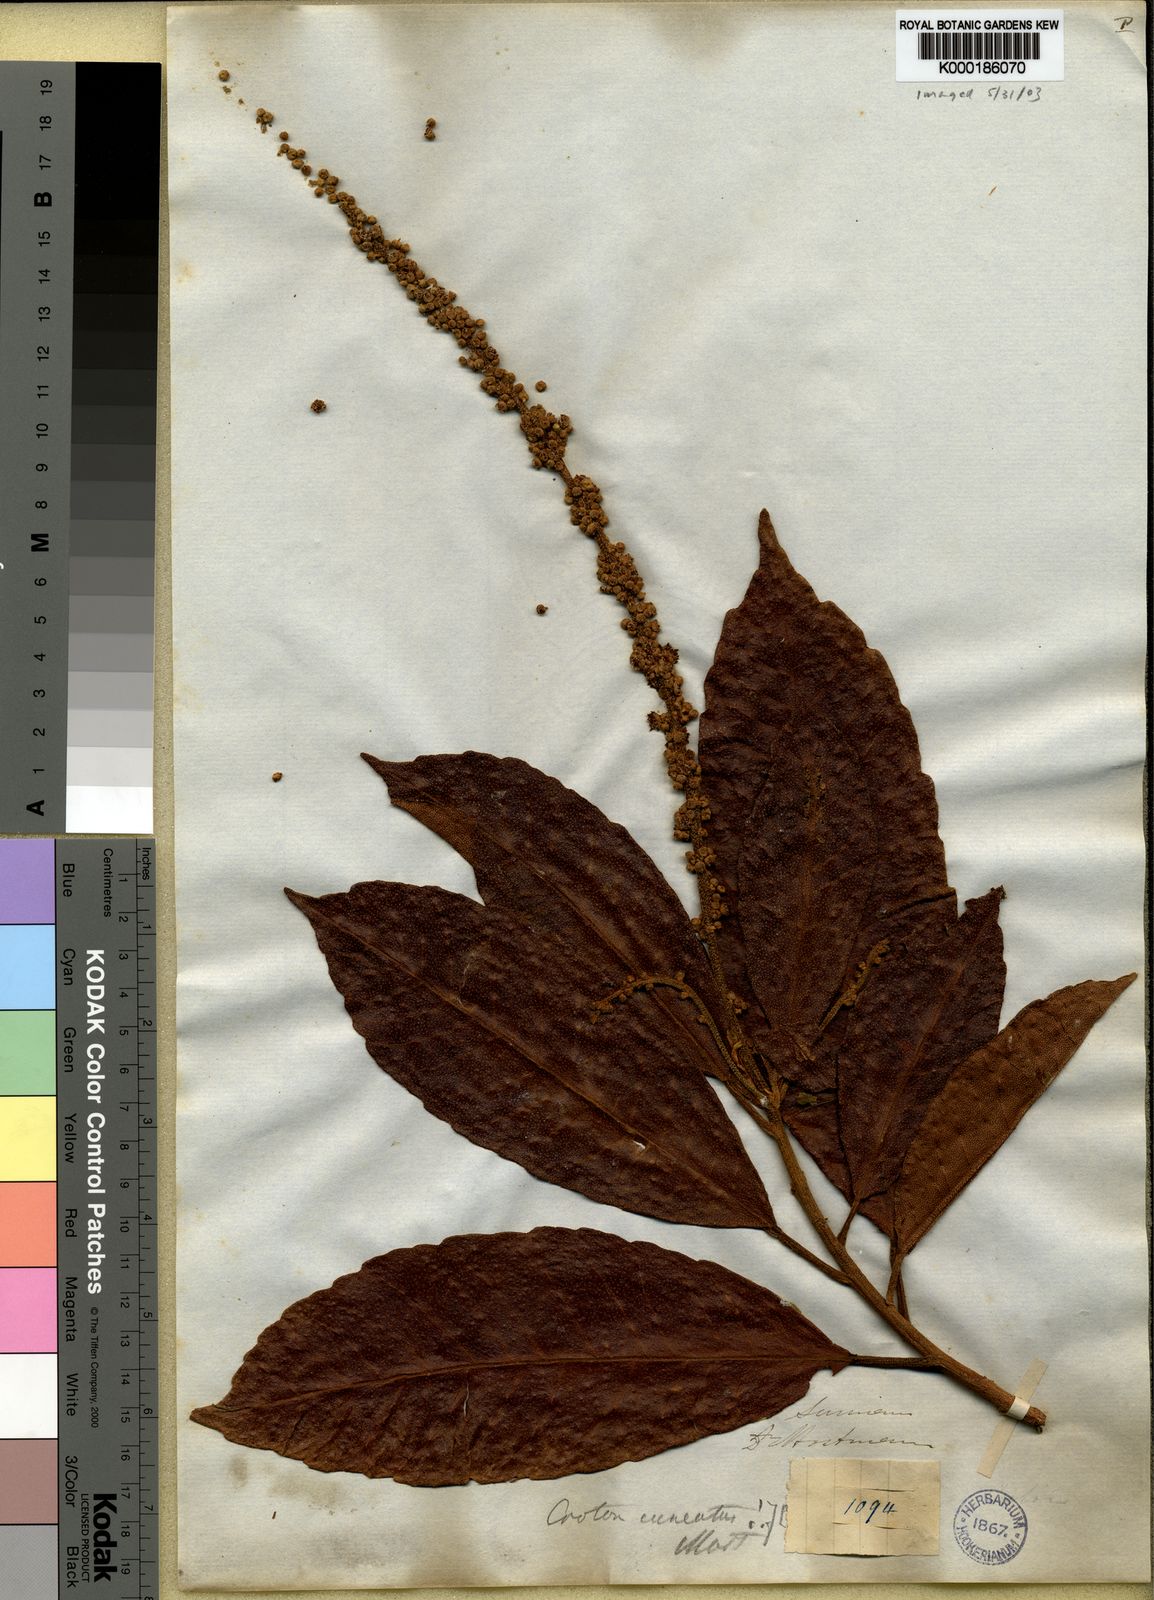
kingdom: Plantae
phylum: Tracheophyta
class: Magnoliopsida
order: Malpighiales
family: Euphorbiaceae
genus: Croton
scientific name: Croton
